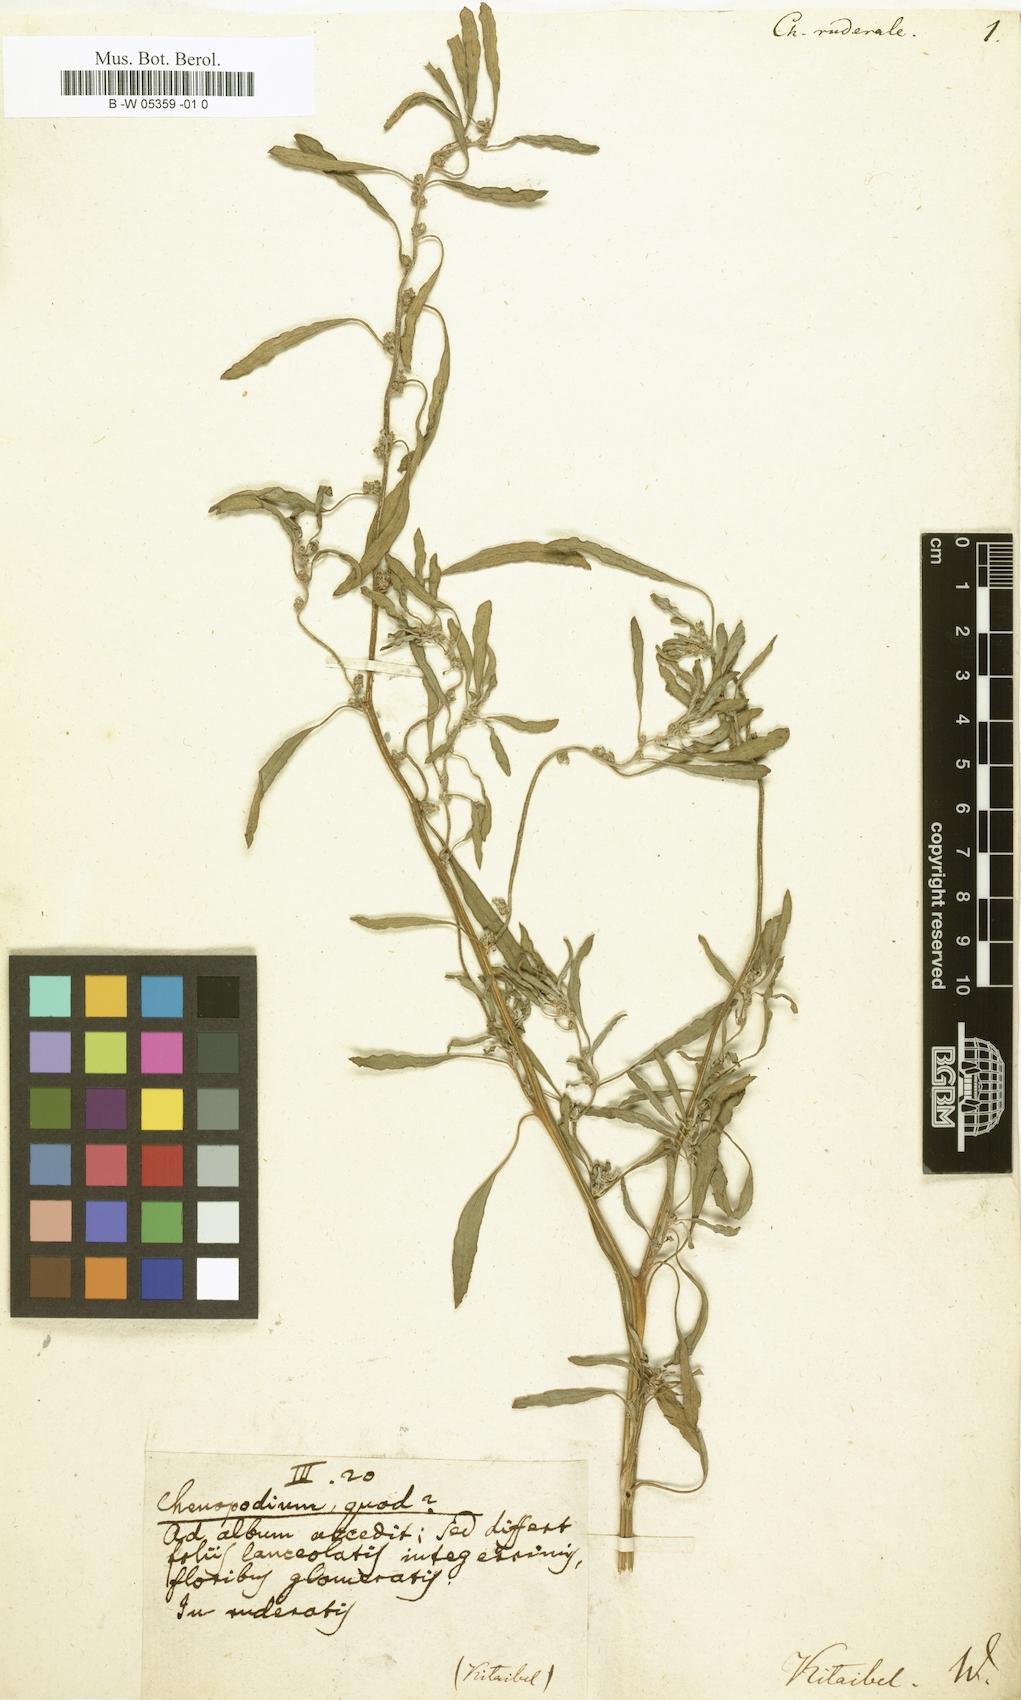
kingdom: Plantae
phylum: Tracheophyta
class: Magnoliopsida
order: Caryophyllales
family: Amaranthaceae
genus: Blitum
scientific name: Blitum bonus-henricus
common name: Good king henry
